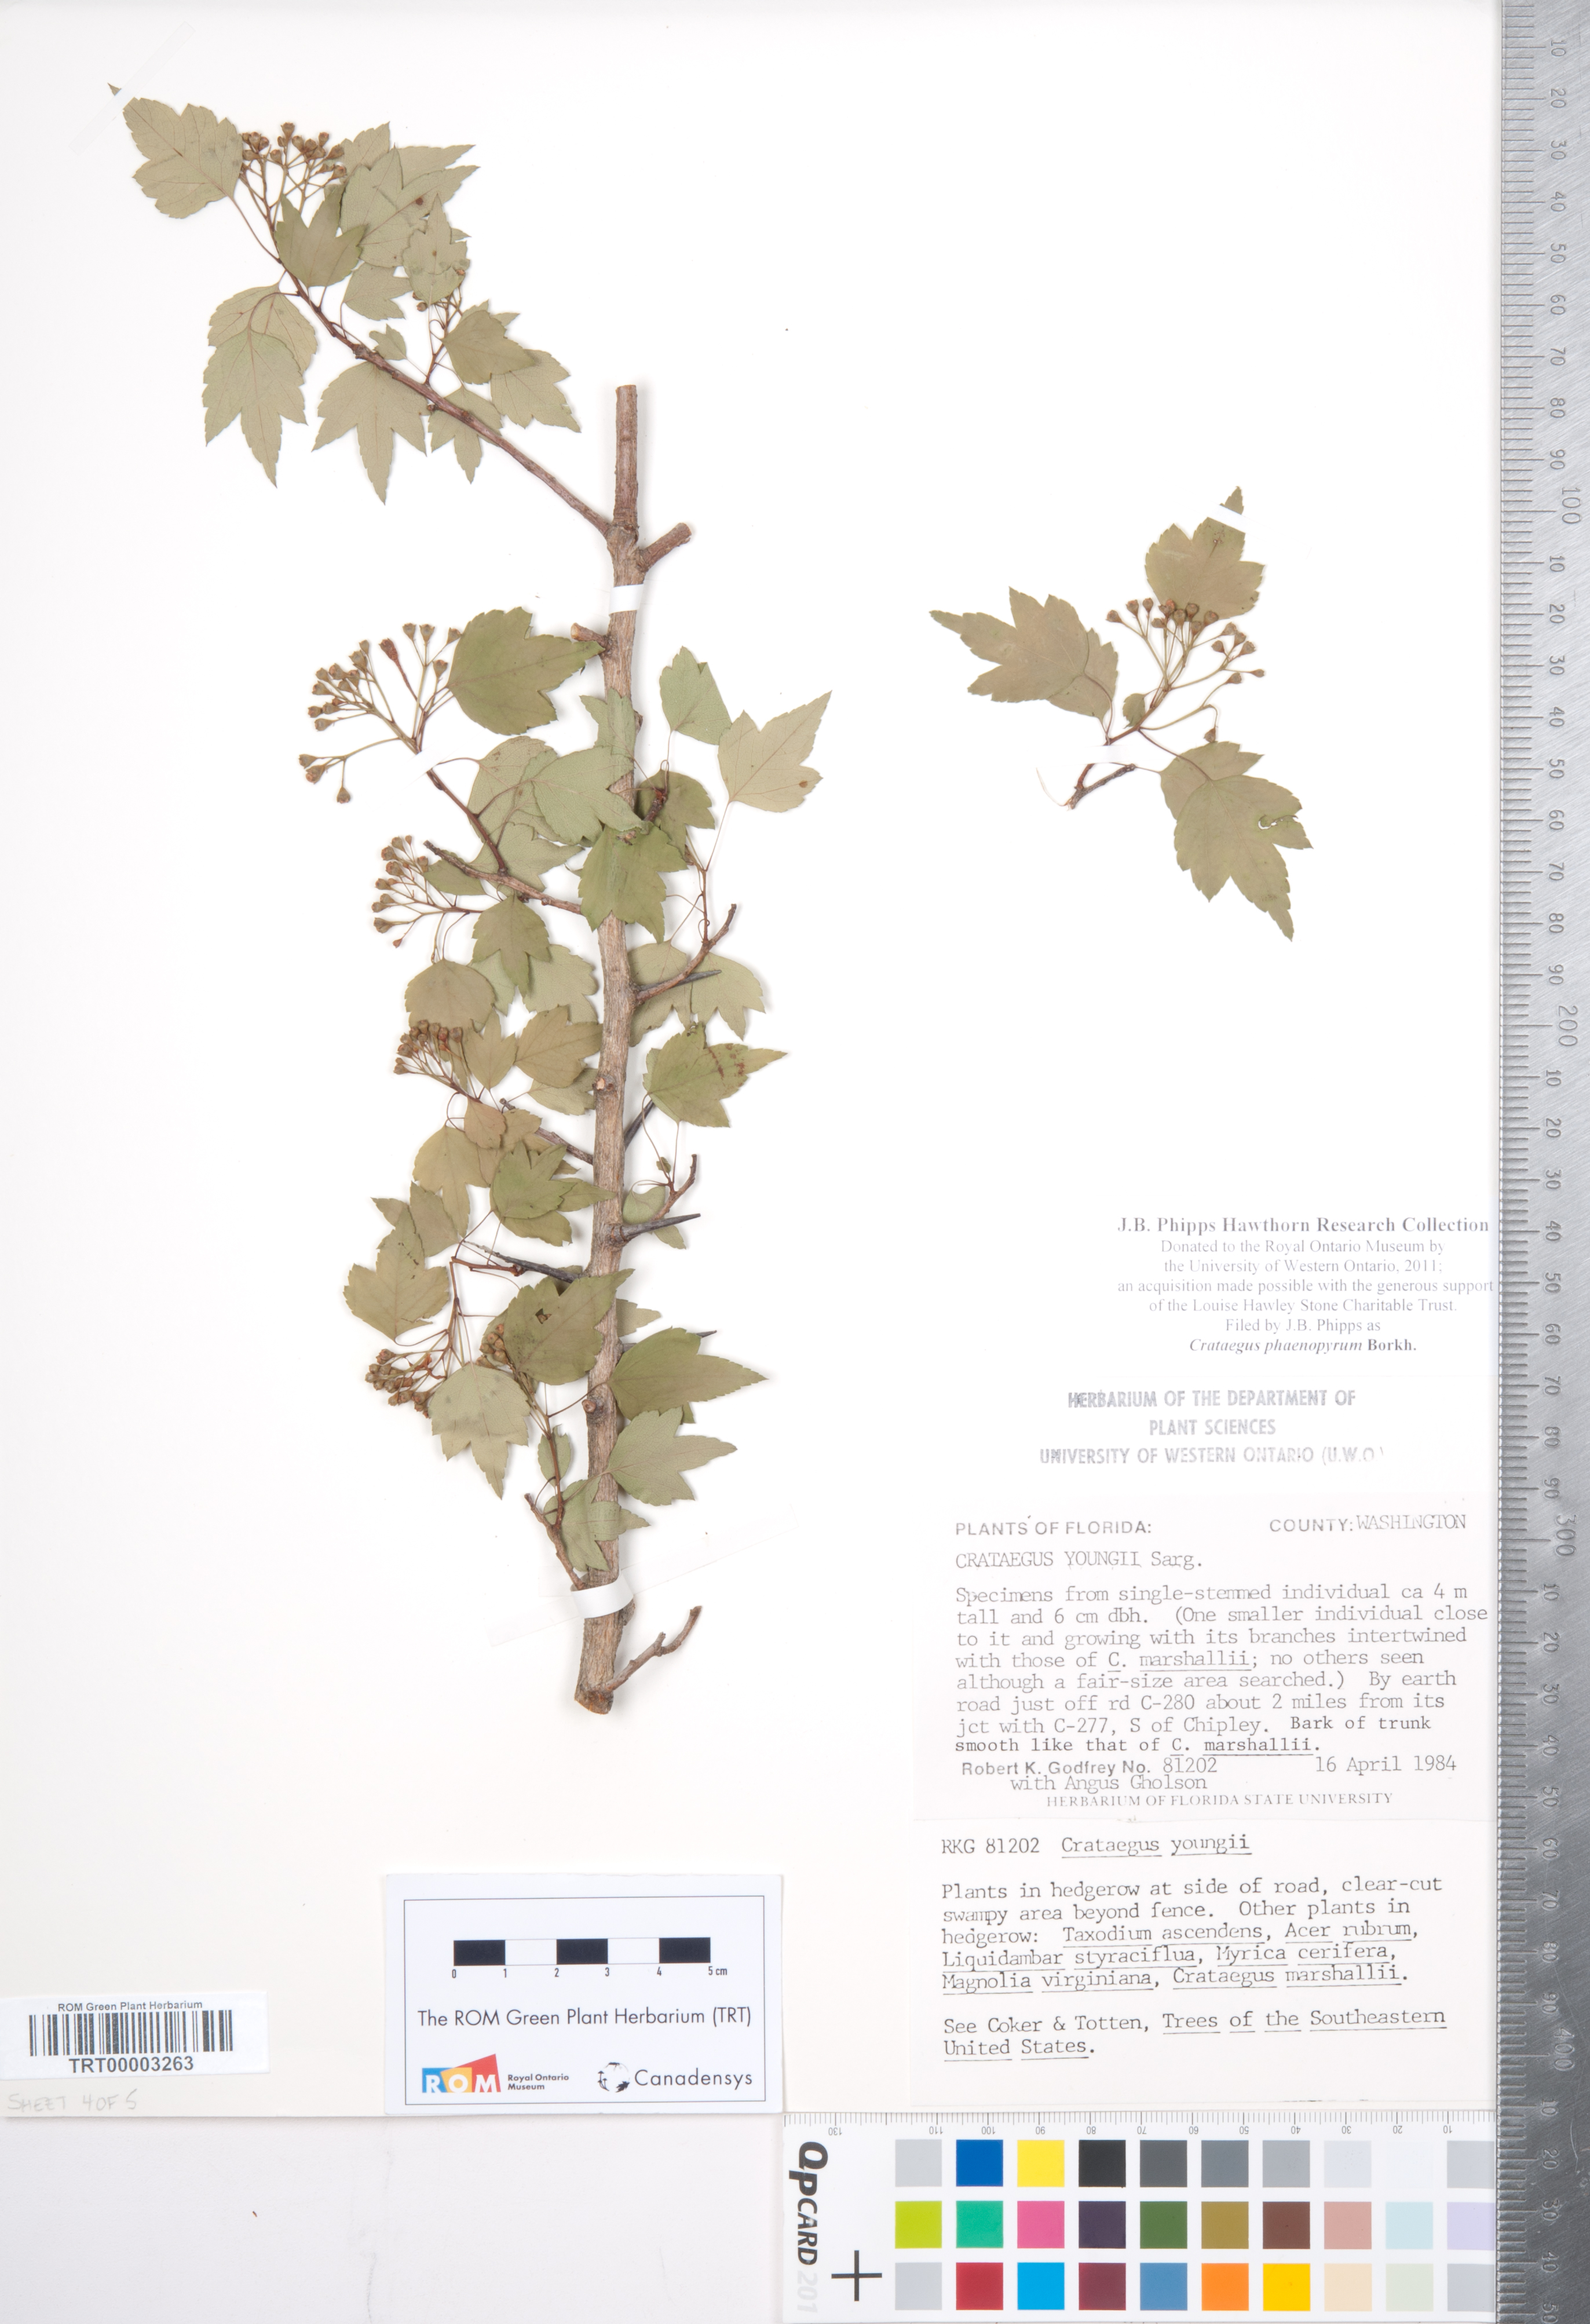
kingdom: Plantae
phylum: Tracheophyta
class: Magnoliopsida
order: Rosales
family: Rosaceae
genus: Crataegus
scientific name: Crataegus phaenopyrum
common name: Washington hawthorn
